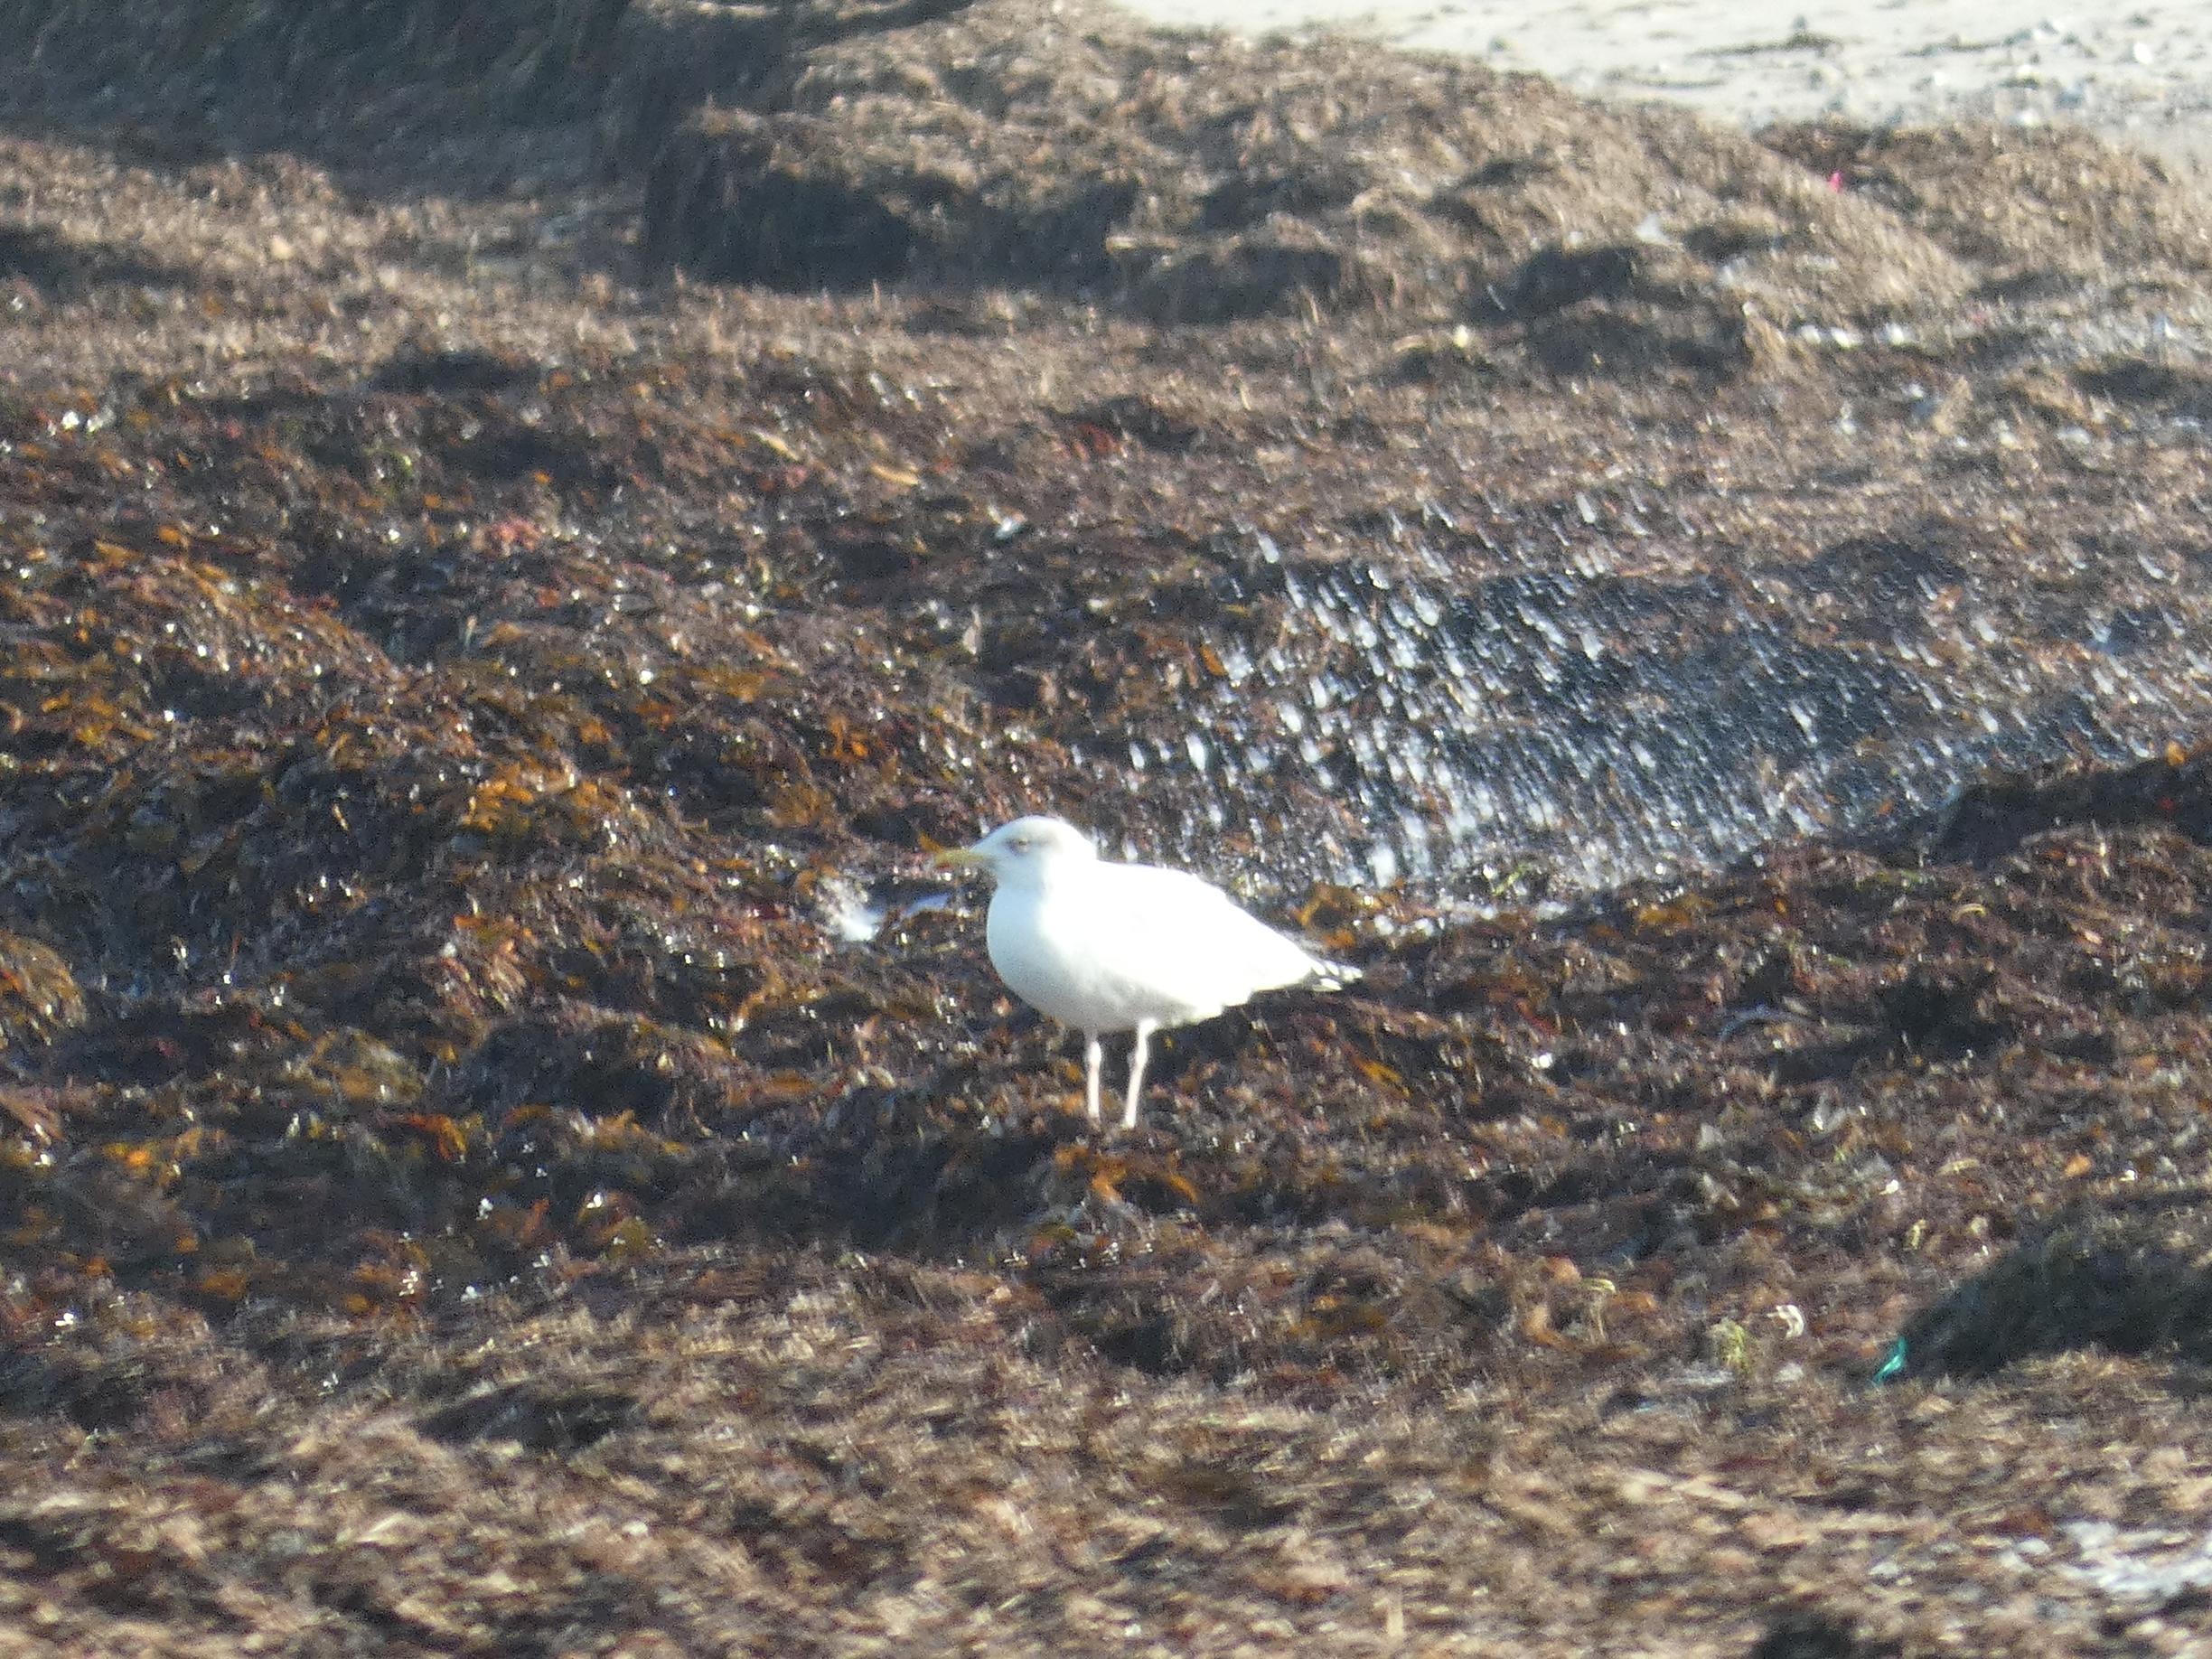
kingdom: Animalia
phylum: Chordata
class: Aves
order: Charadriiformes
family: Laridae
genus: Larus
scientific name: Larus argentatus
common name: Sølvmåge
